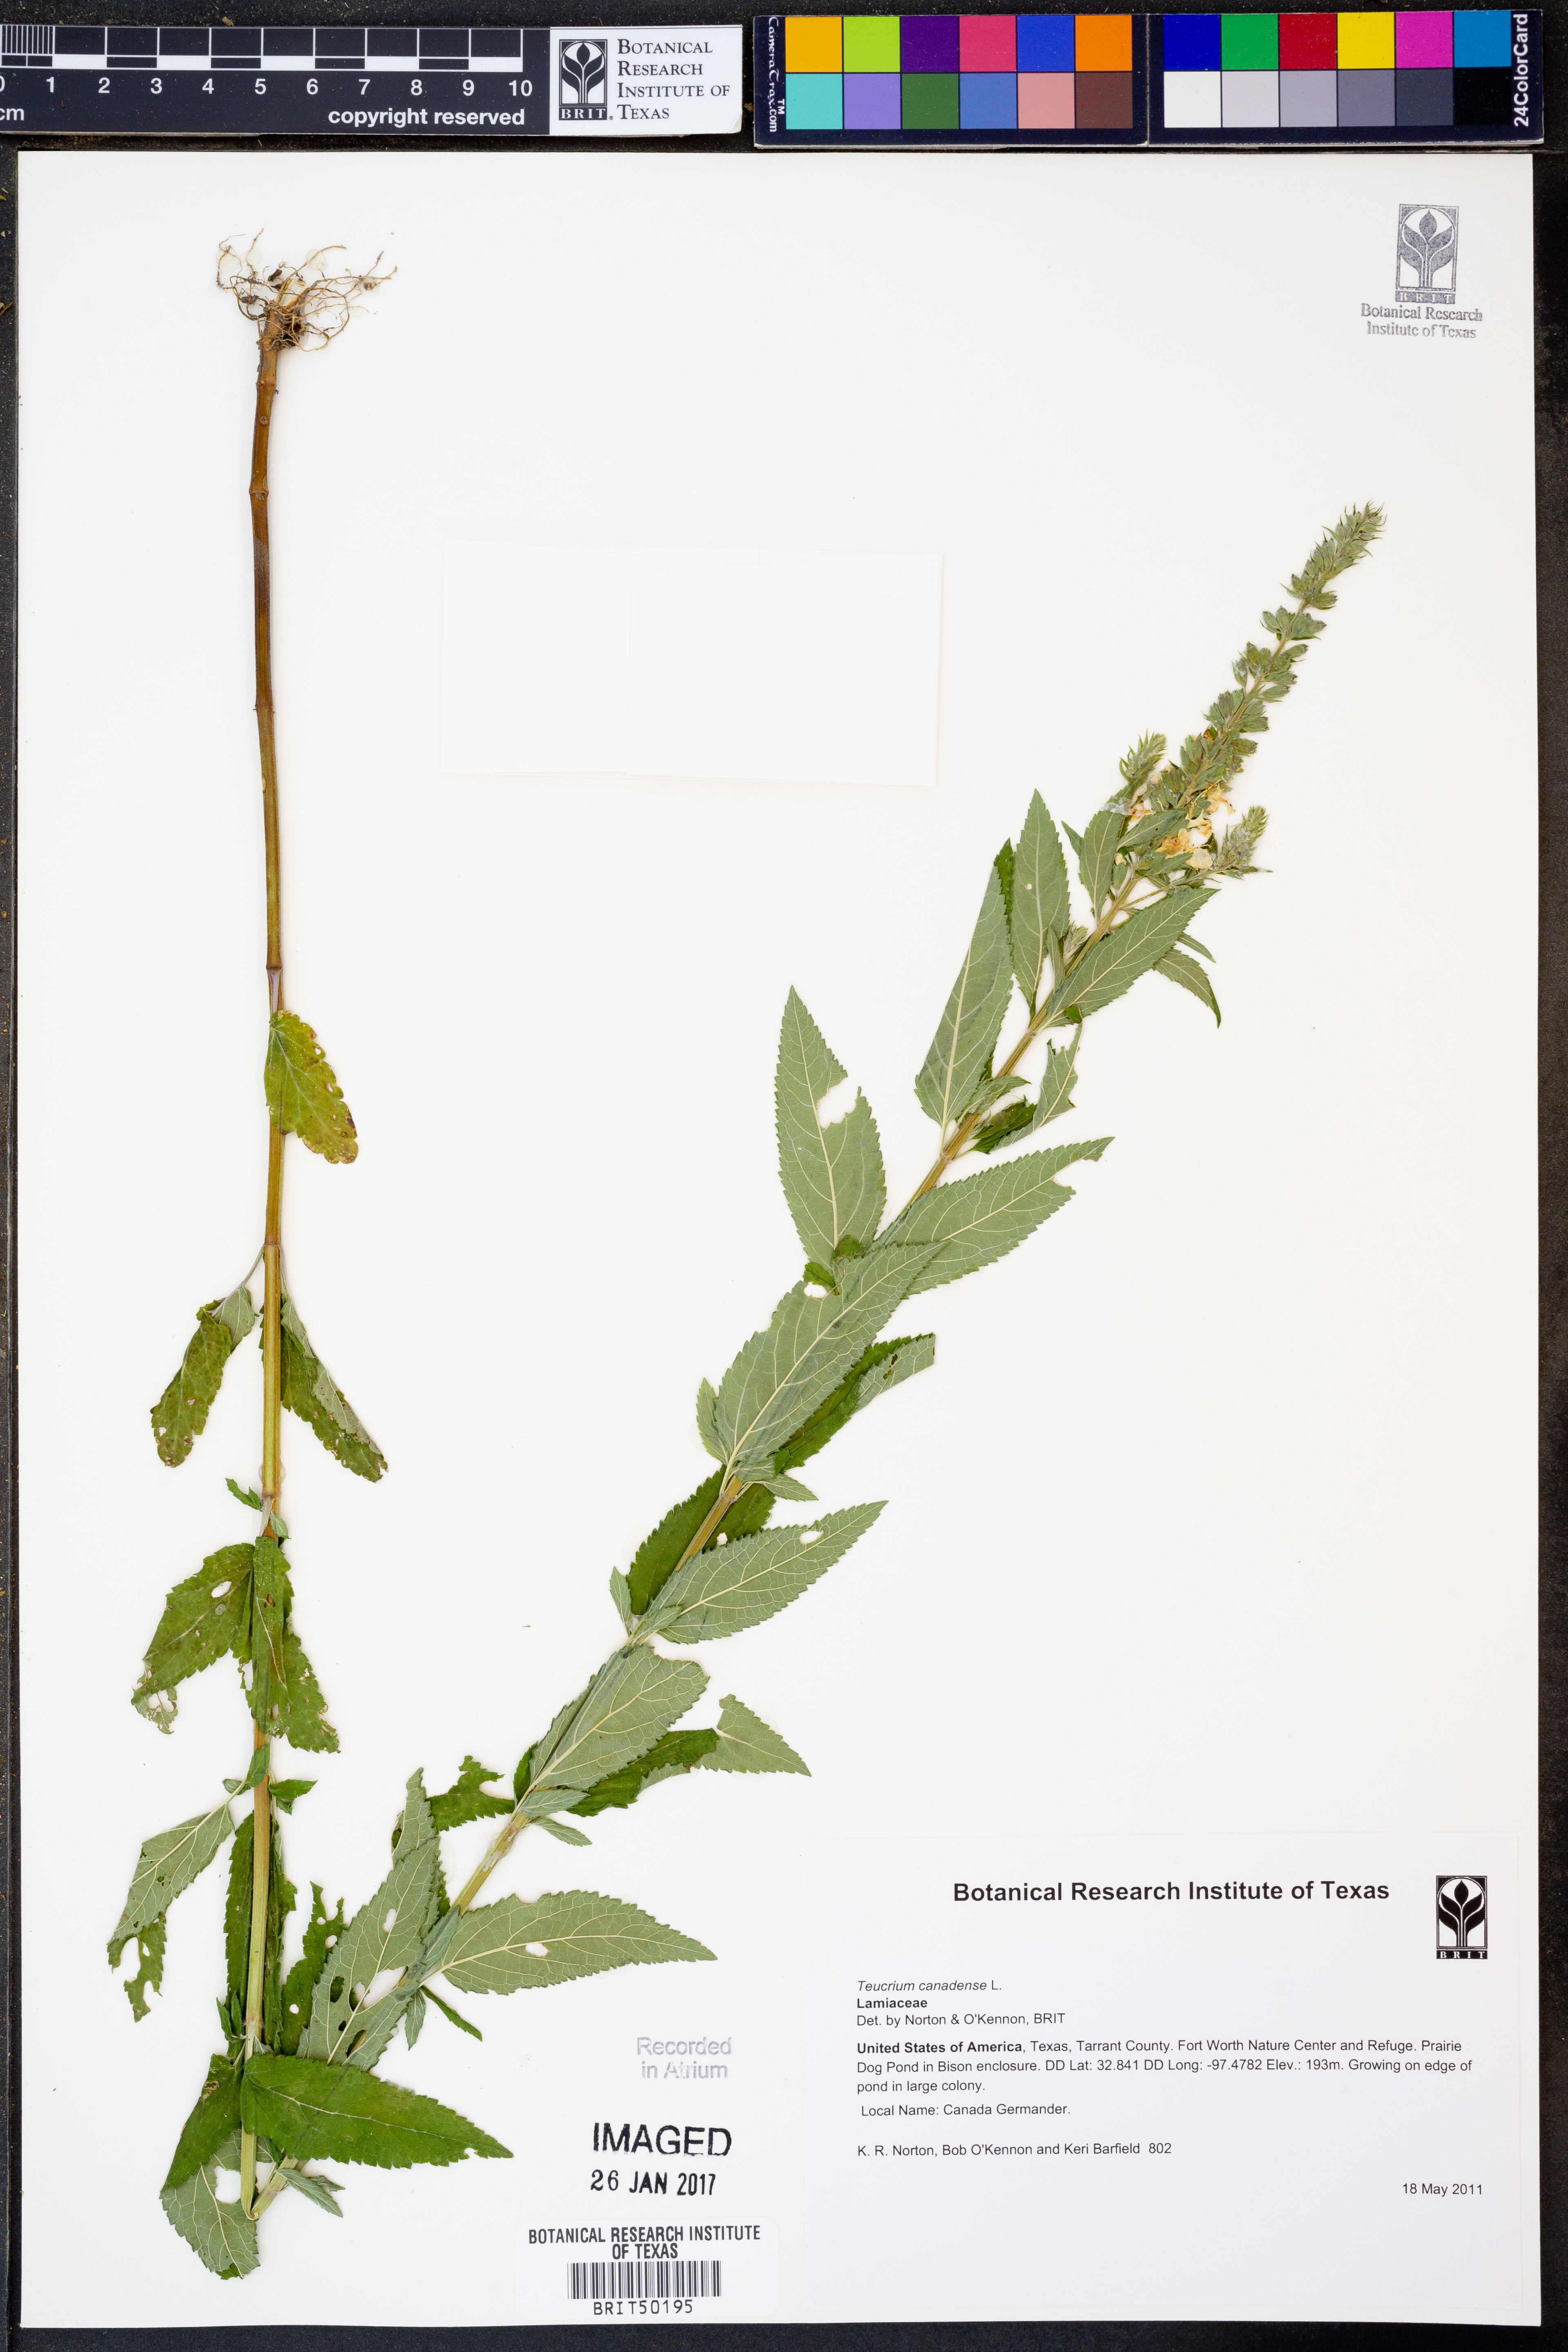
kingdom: Plantae
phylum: Tracheophyta
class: Magnoliopsida
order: Lamiales
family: Lamiaceae
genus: Teucrium
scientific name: Teucrium canadense
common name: American germander
